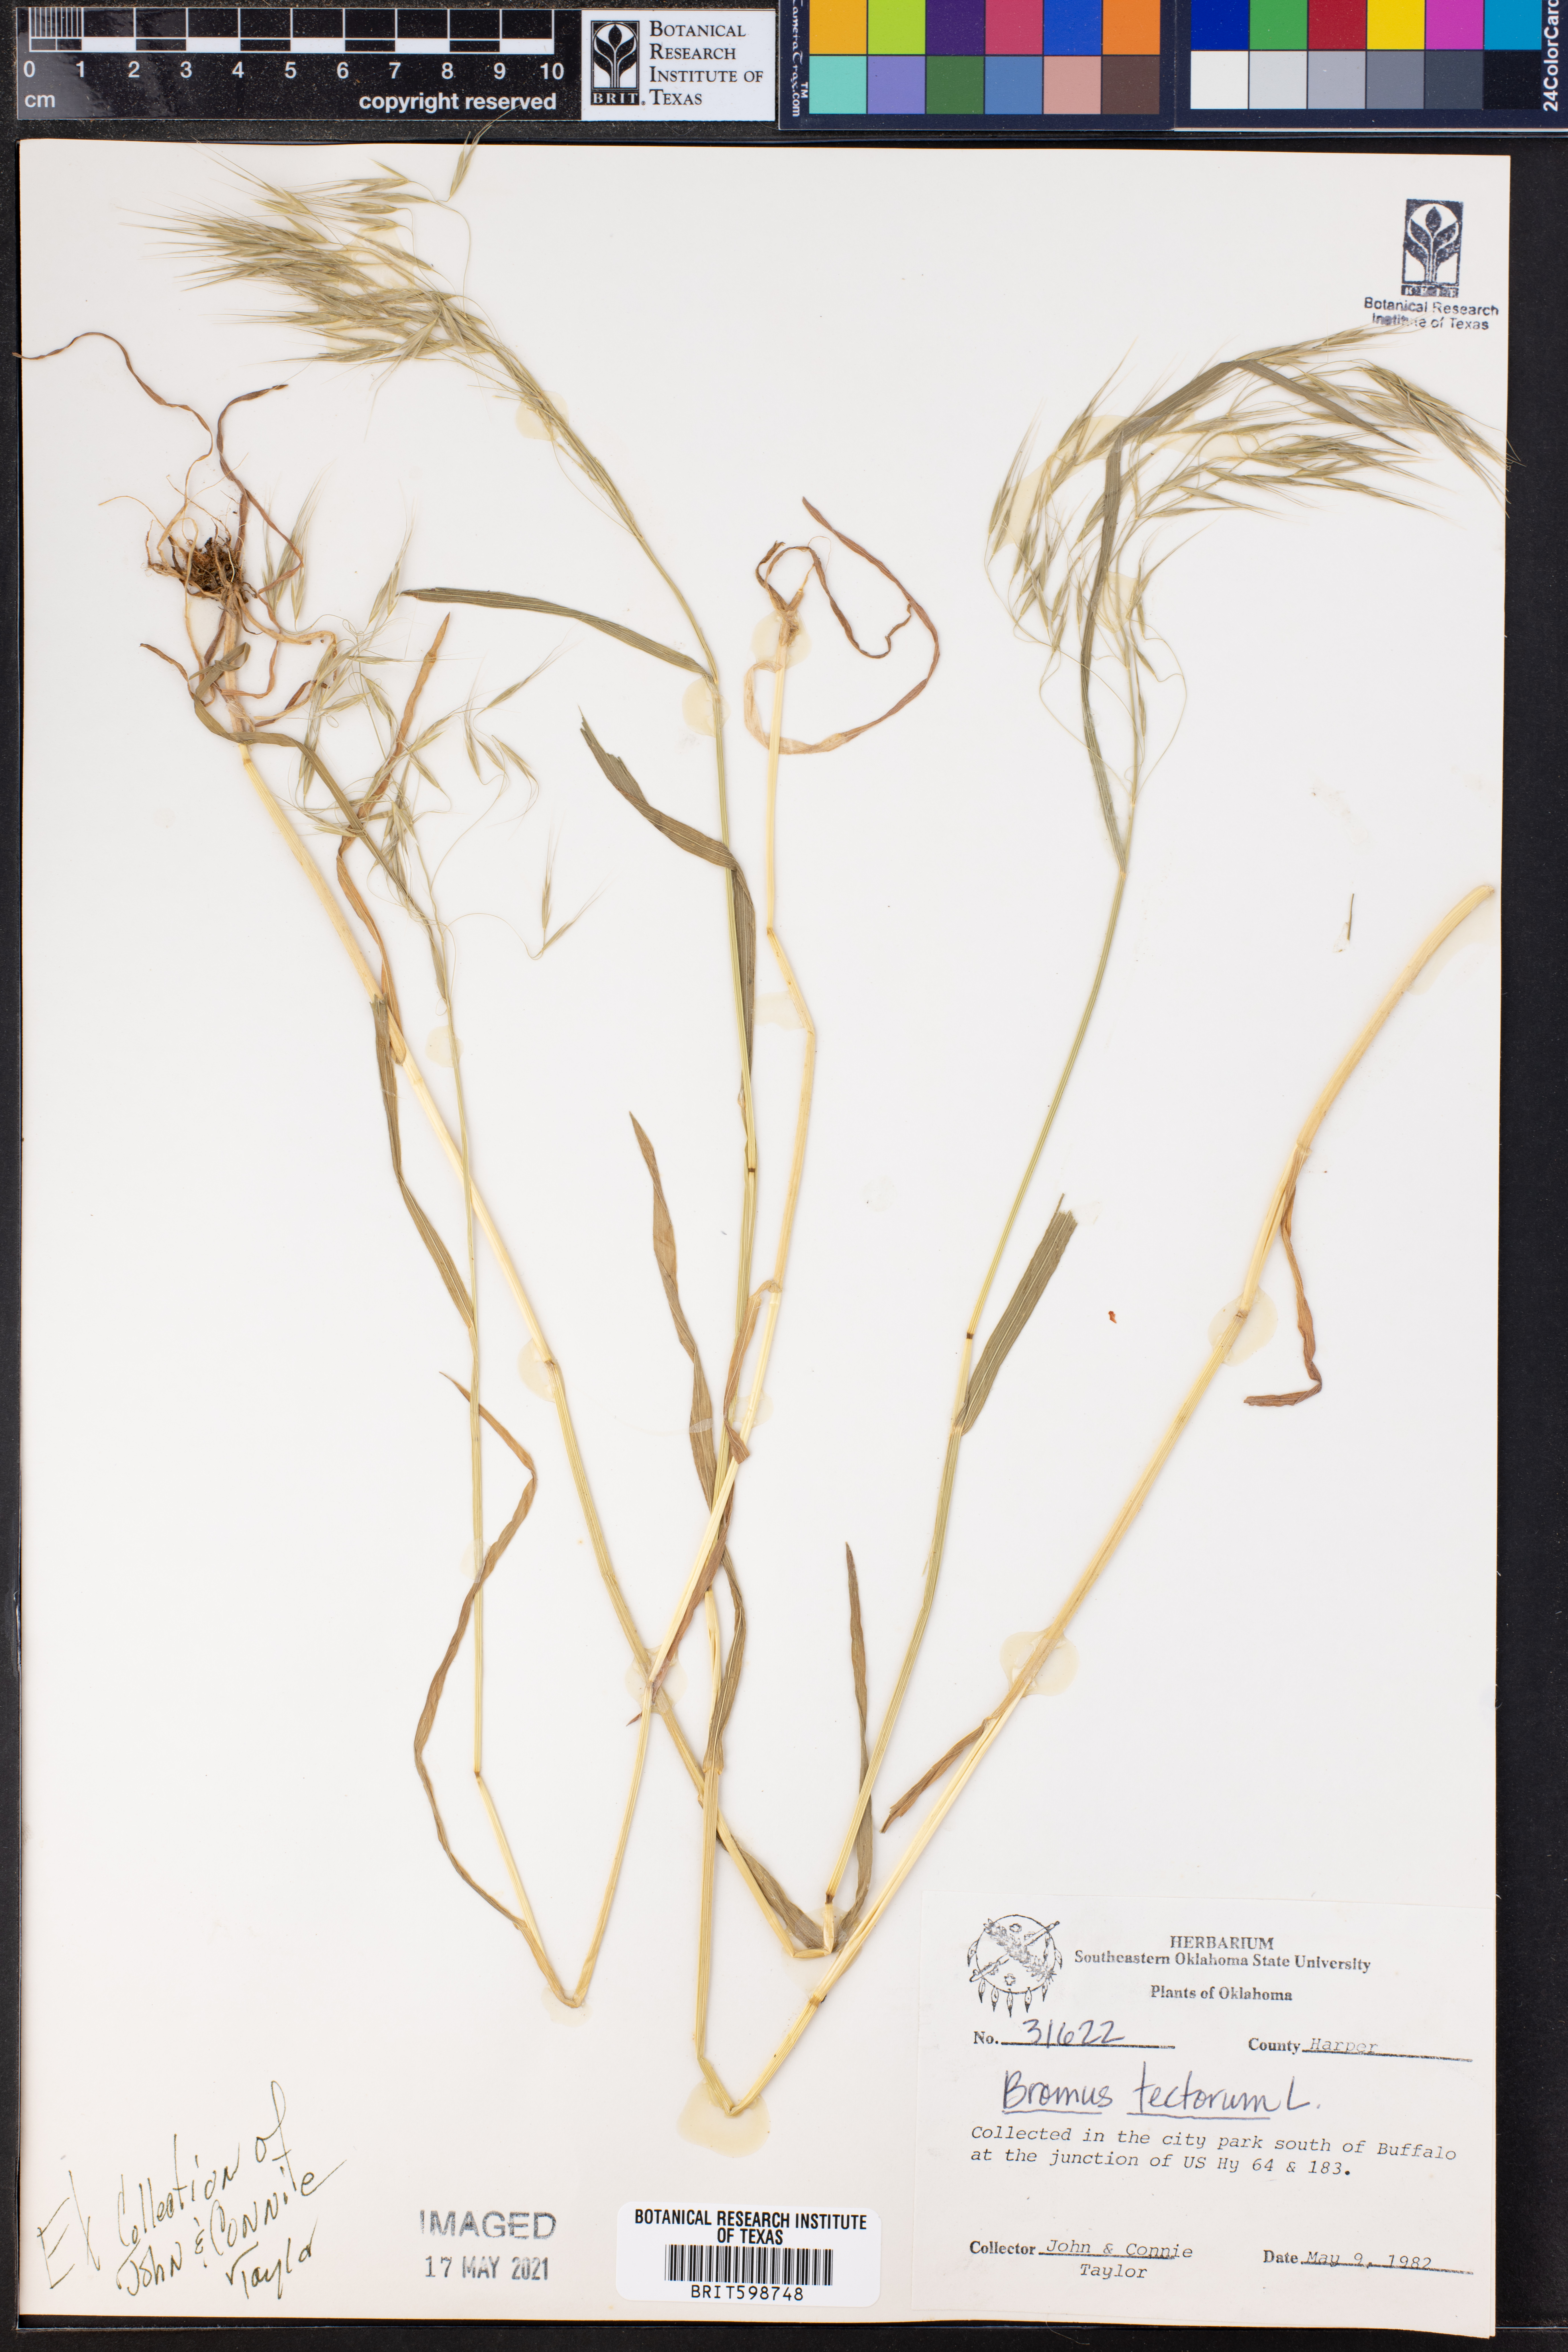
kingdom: Plantae
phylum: Tracheophyta
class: Liliopsida
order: Poales
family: Poaceae
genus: Bromus
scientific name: Bromus tectorum
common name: Cheatgrass
